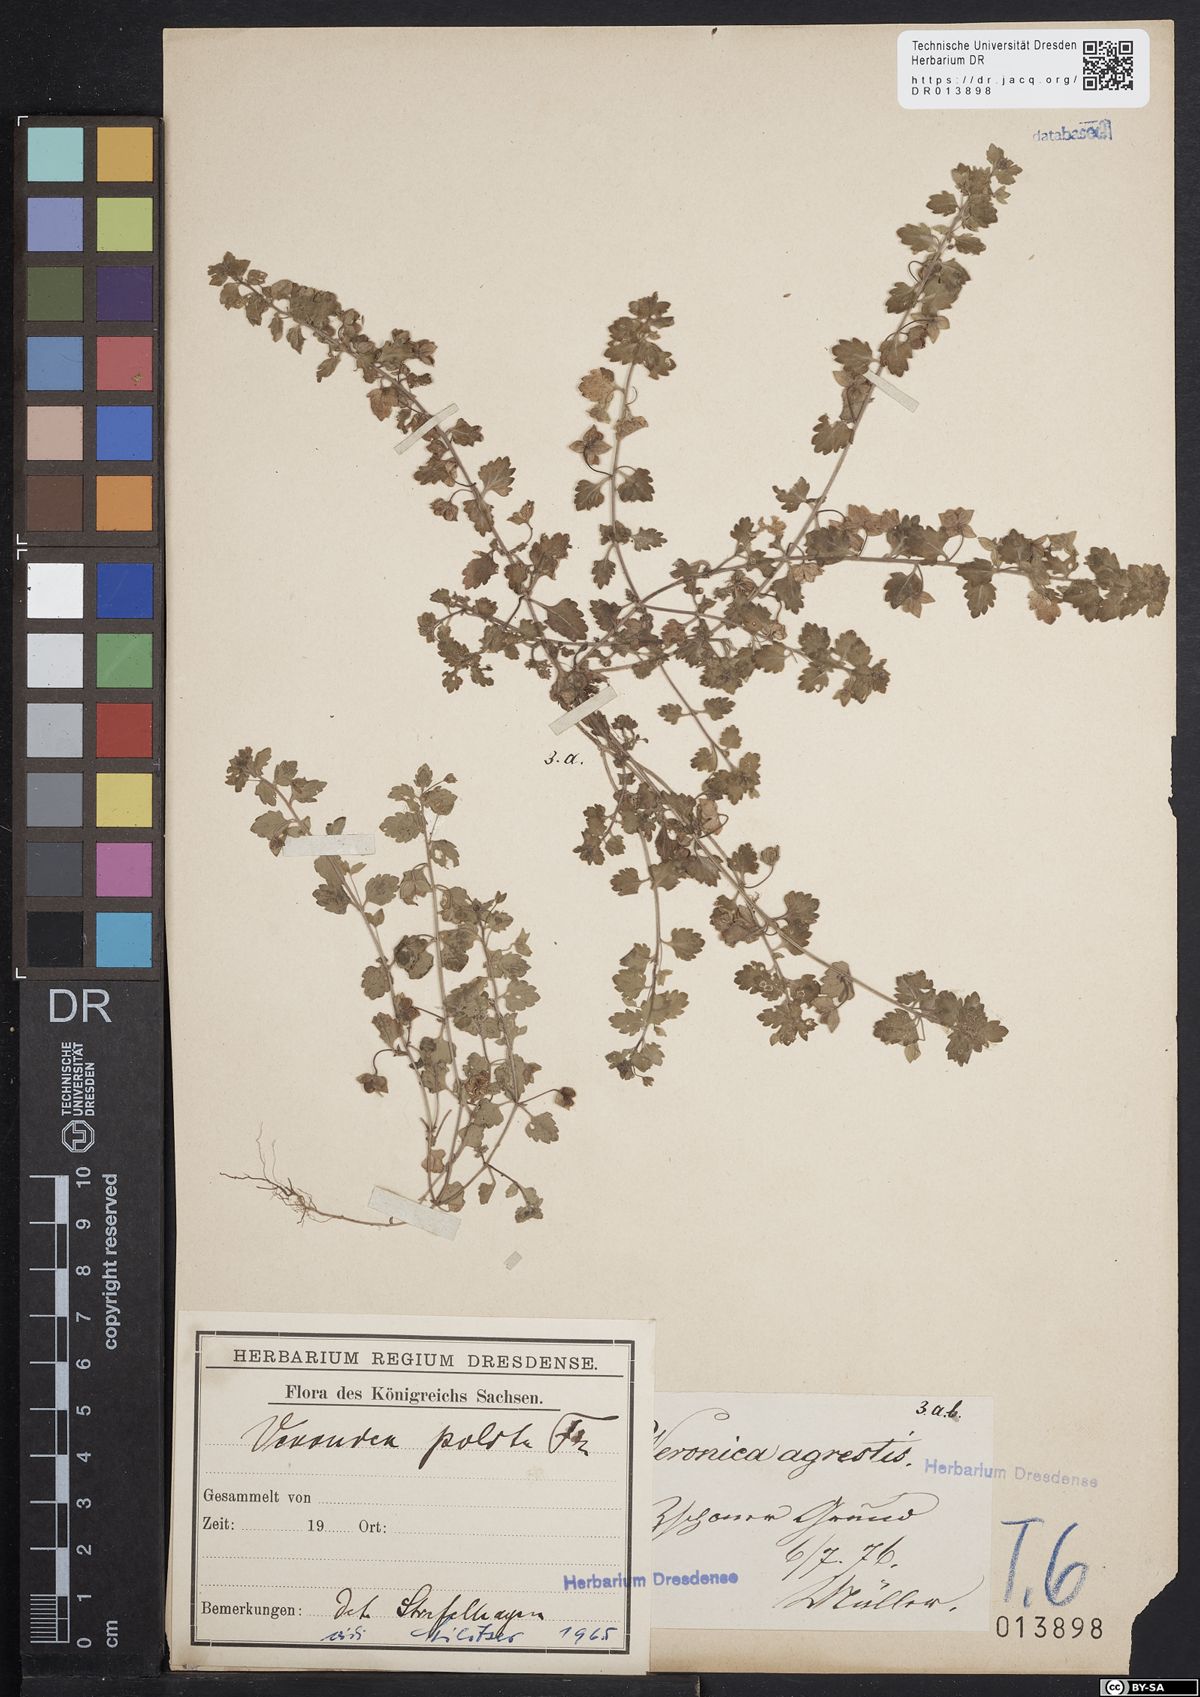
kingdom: Plantae
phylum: Tracheophyta
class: Magnoliopsida
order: Lamiales
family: Plantaginaceae
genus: Veronica
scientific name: Veronica polita
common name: Grey field-speedwell
